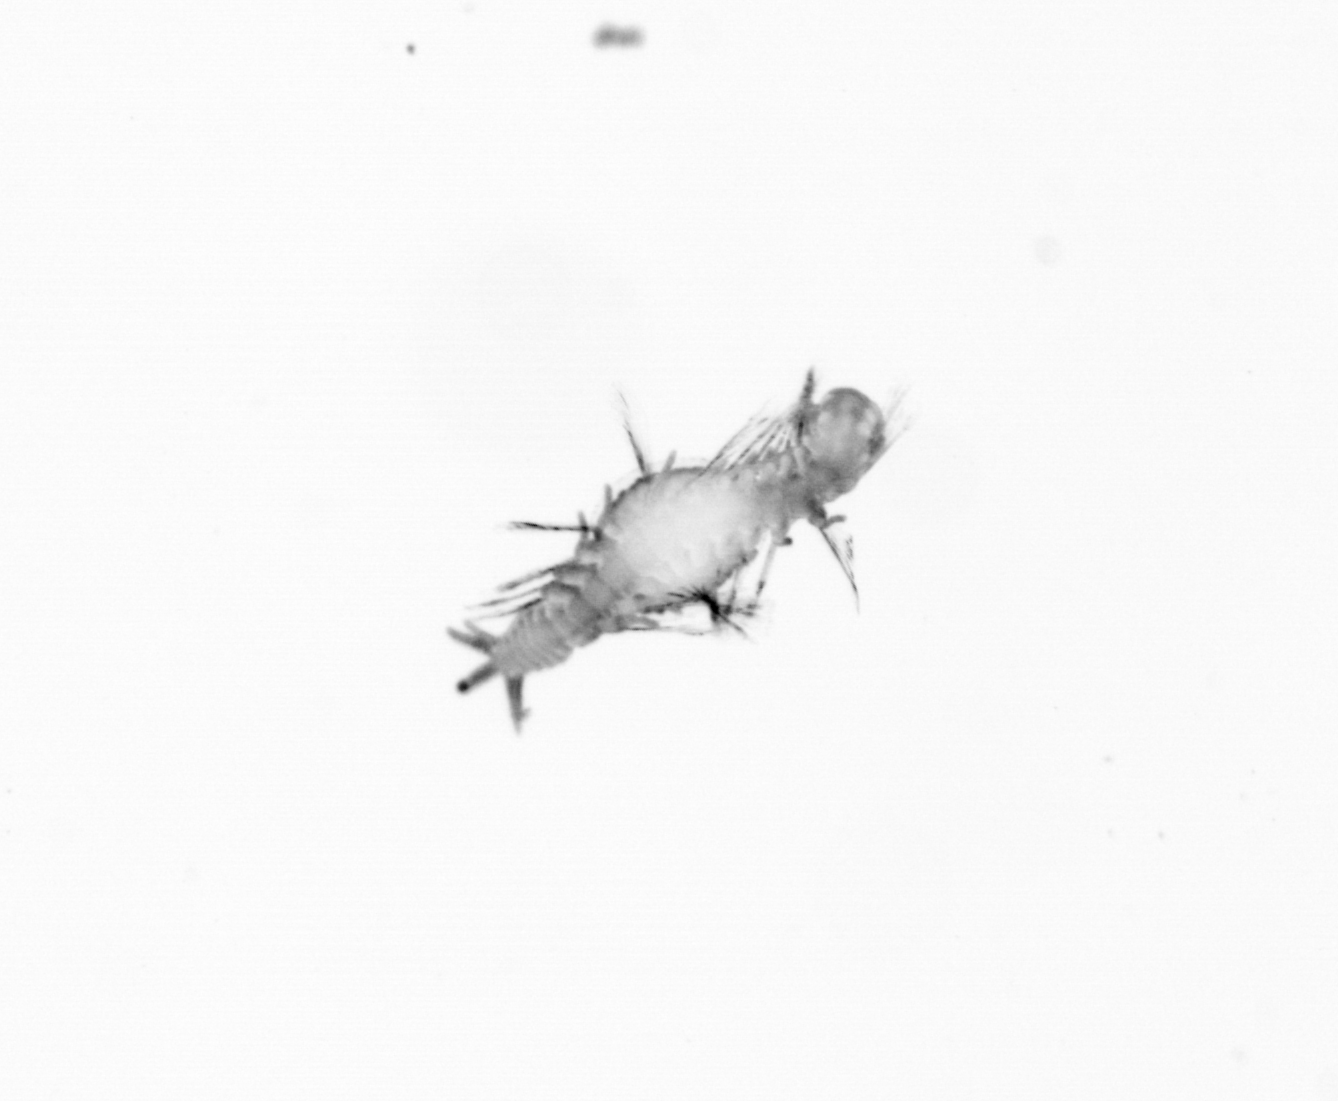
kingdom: Animalia
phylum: Annelida
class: Polychaeta
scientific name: Polychaeta
